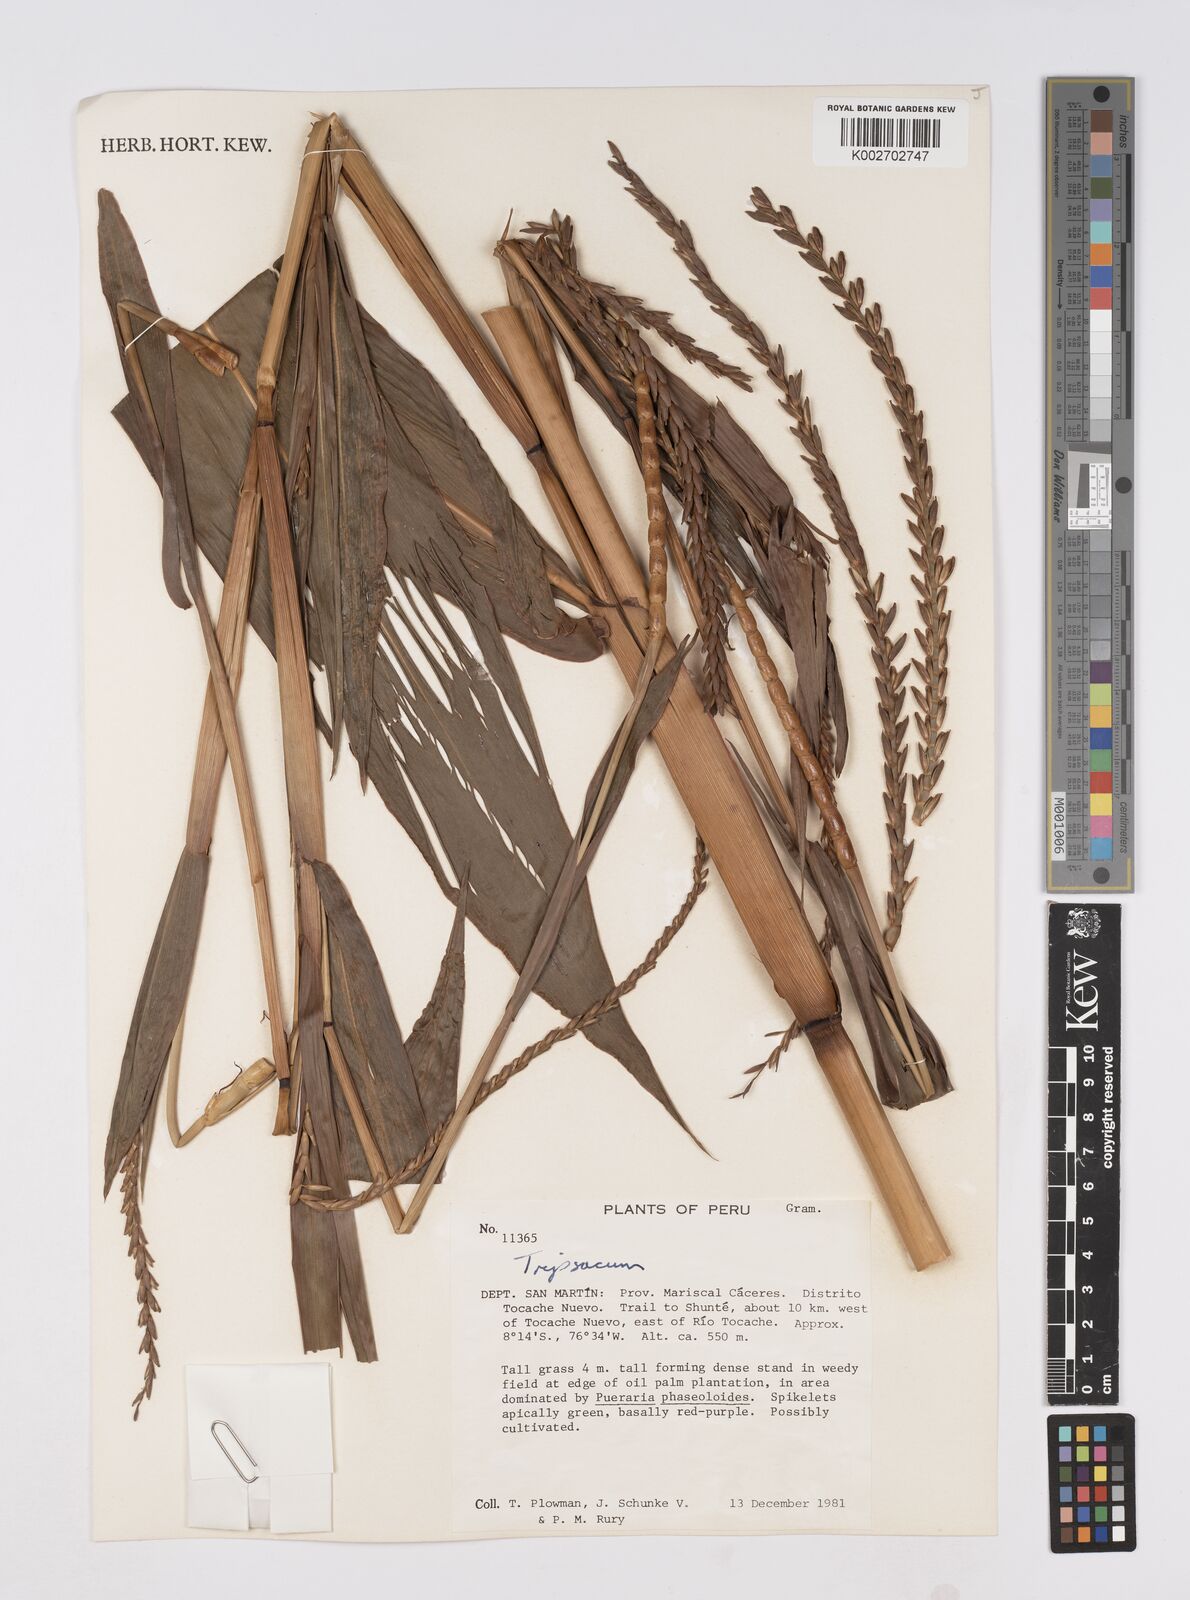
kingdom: Plantae
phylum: Tracheophyta
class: Liliopsida
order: Poales
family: Poaceae
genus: Tripsacum
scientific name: Tripsacum andersonii
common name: Guatemalan grass
